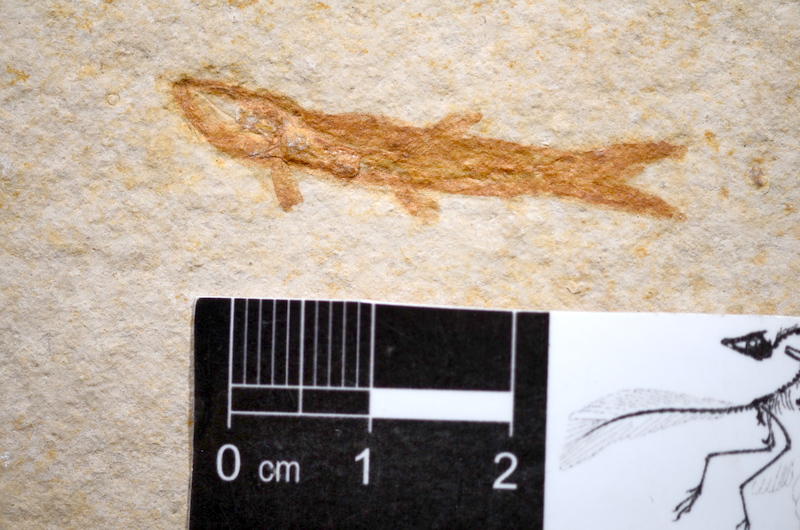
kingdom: Animalia
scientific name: Animalia
